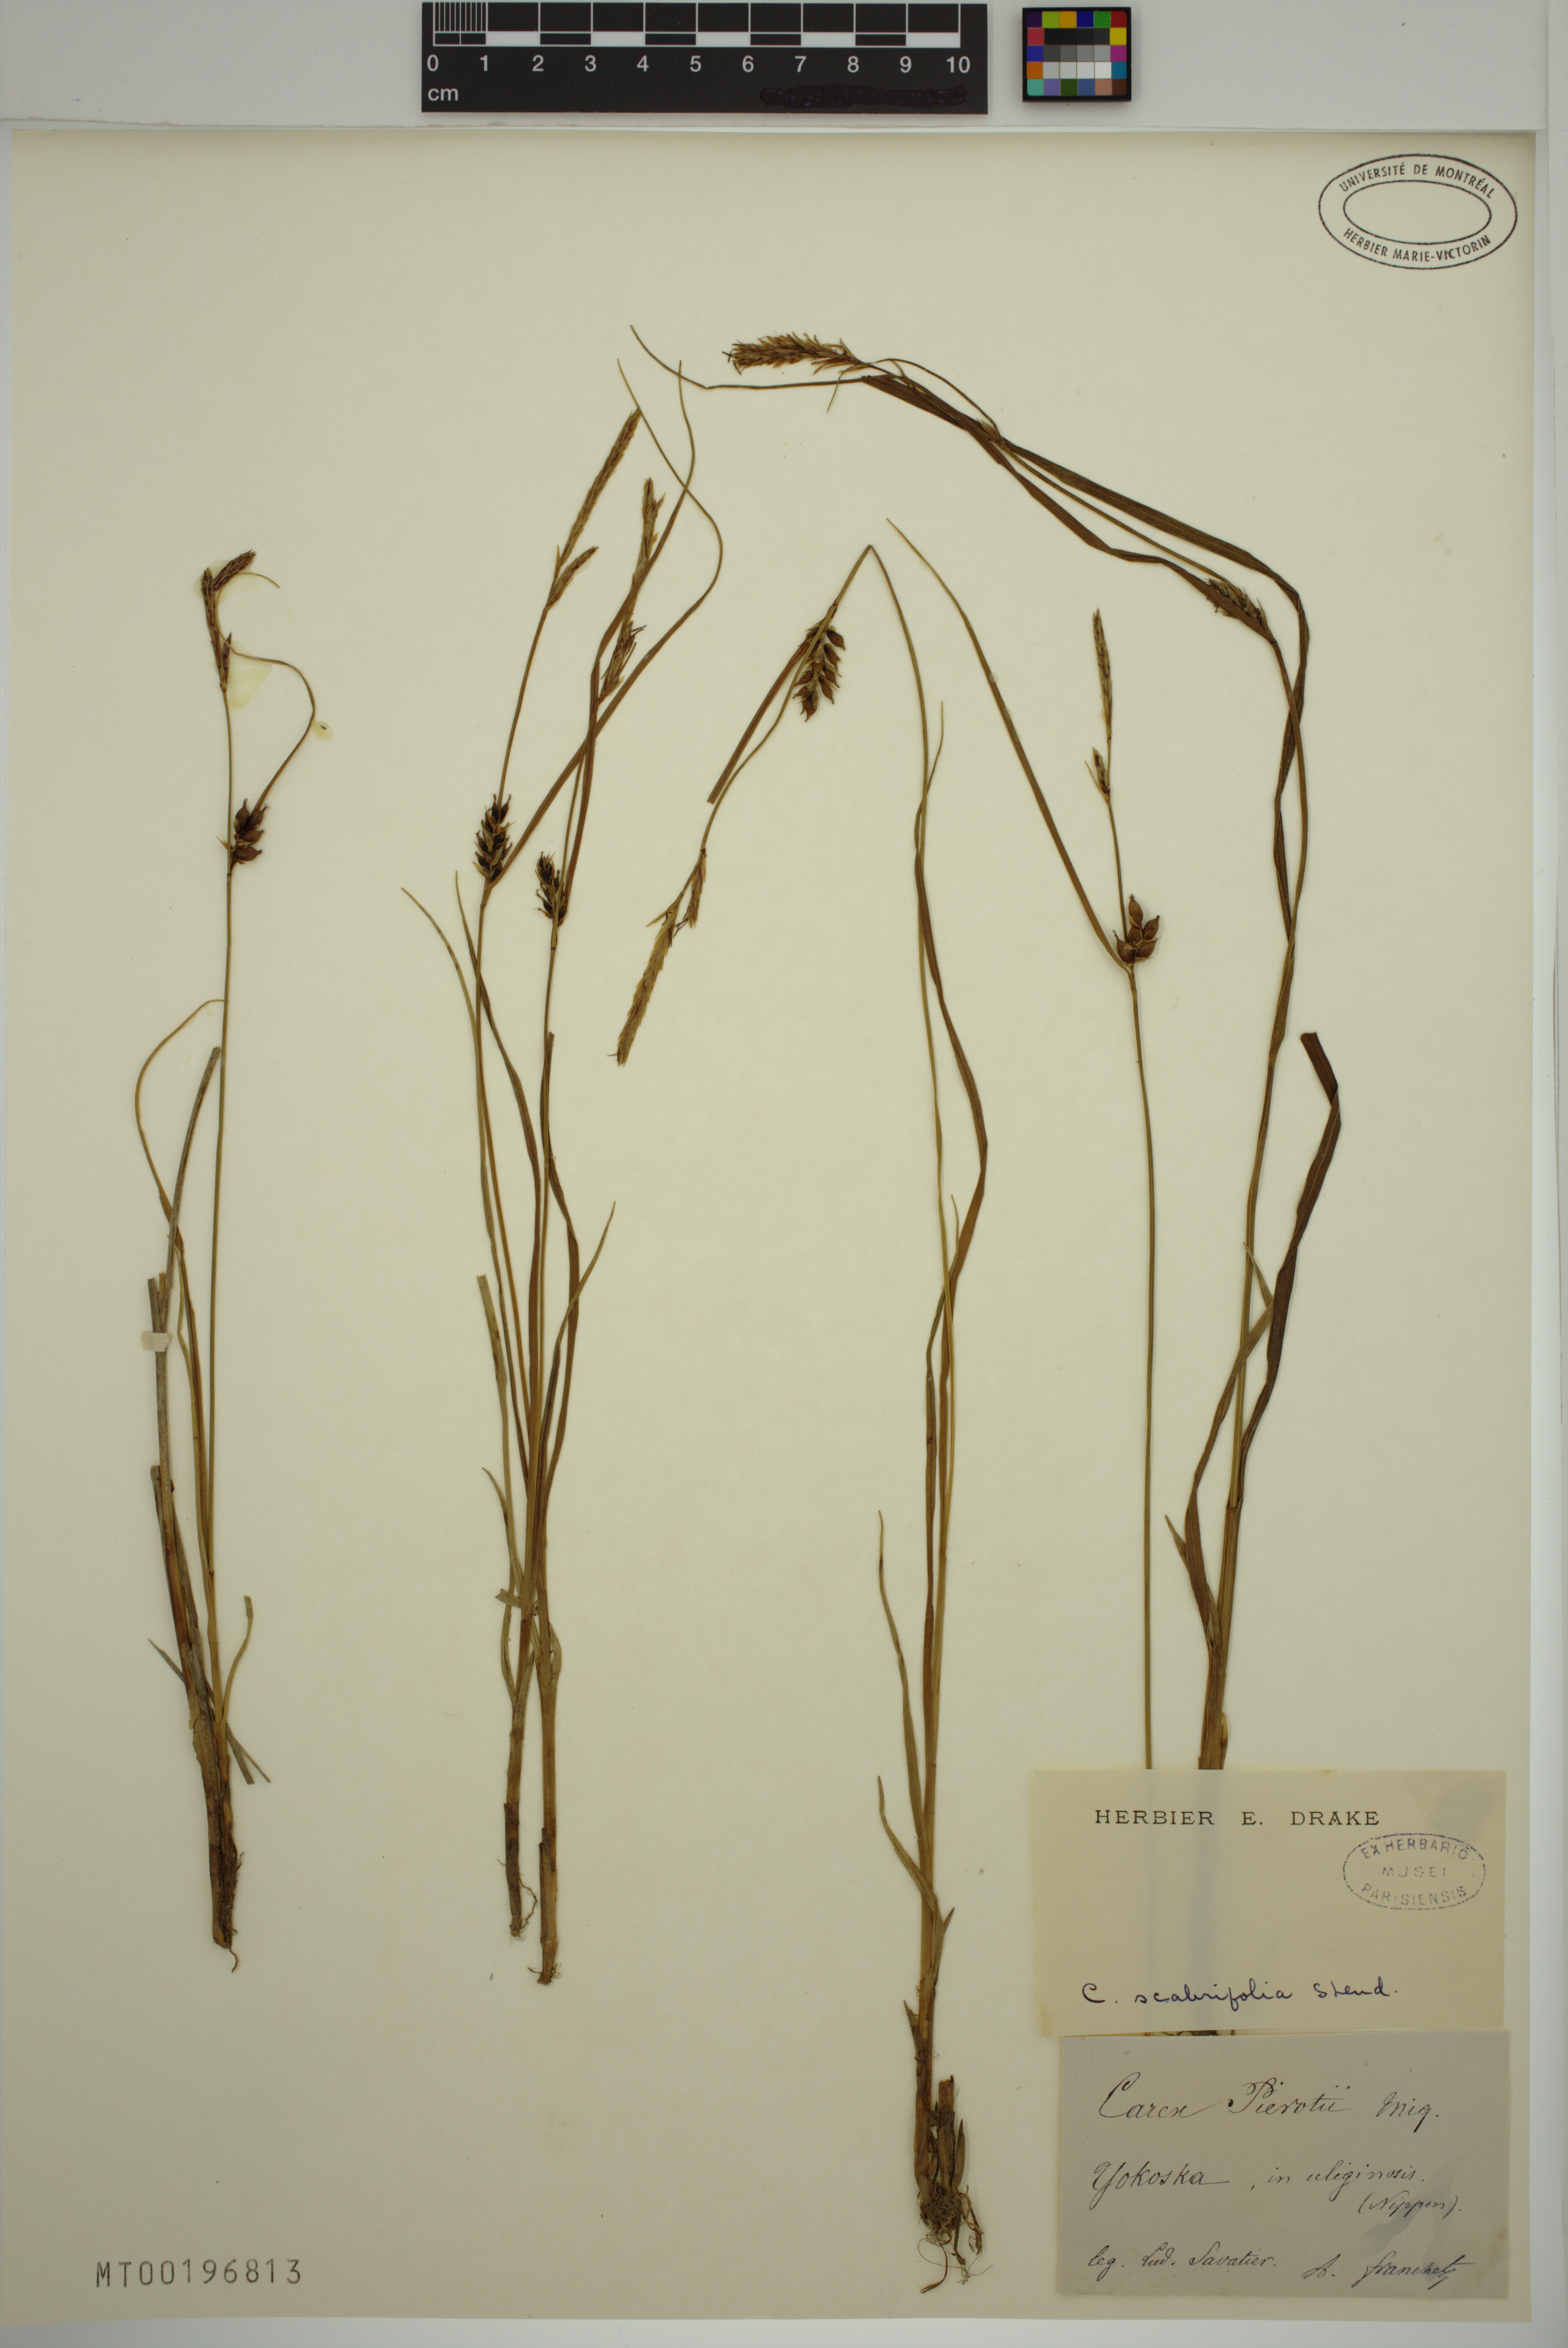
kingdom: Plantae
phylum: Tracheophyta
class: Liliopsida
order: Poales
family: Cyperaceae
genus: Carex
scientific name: Carex scabrifolia
